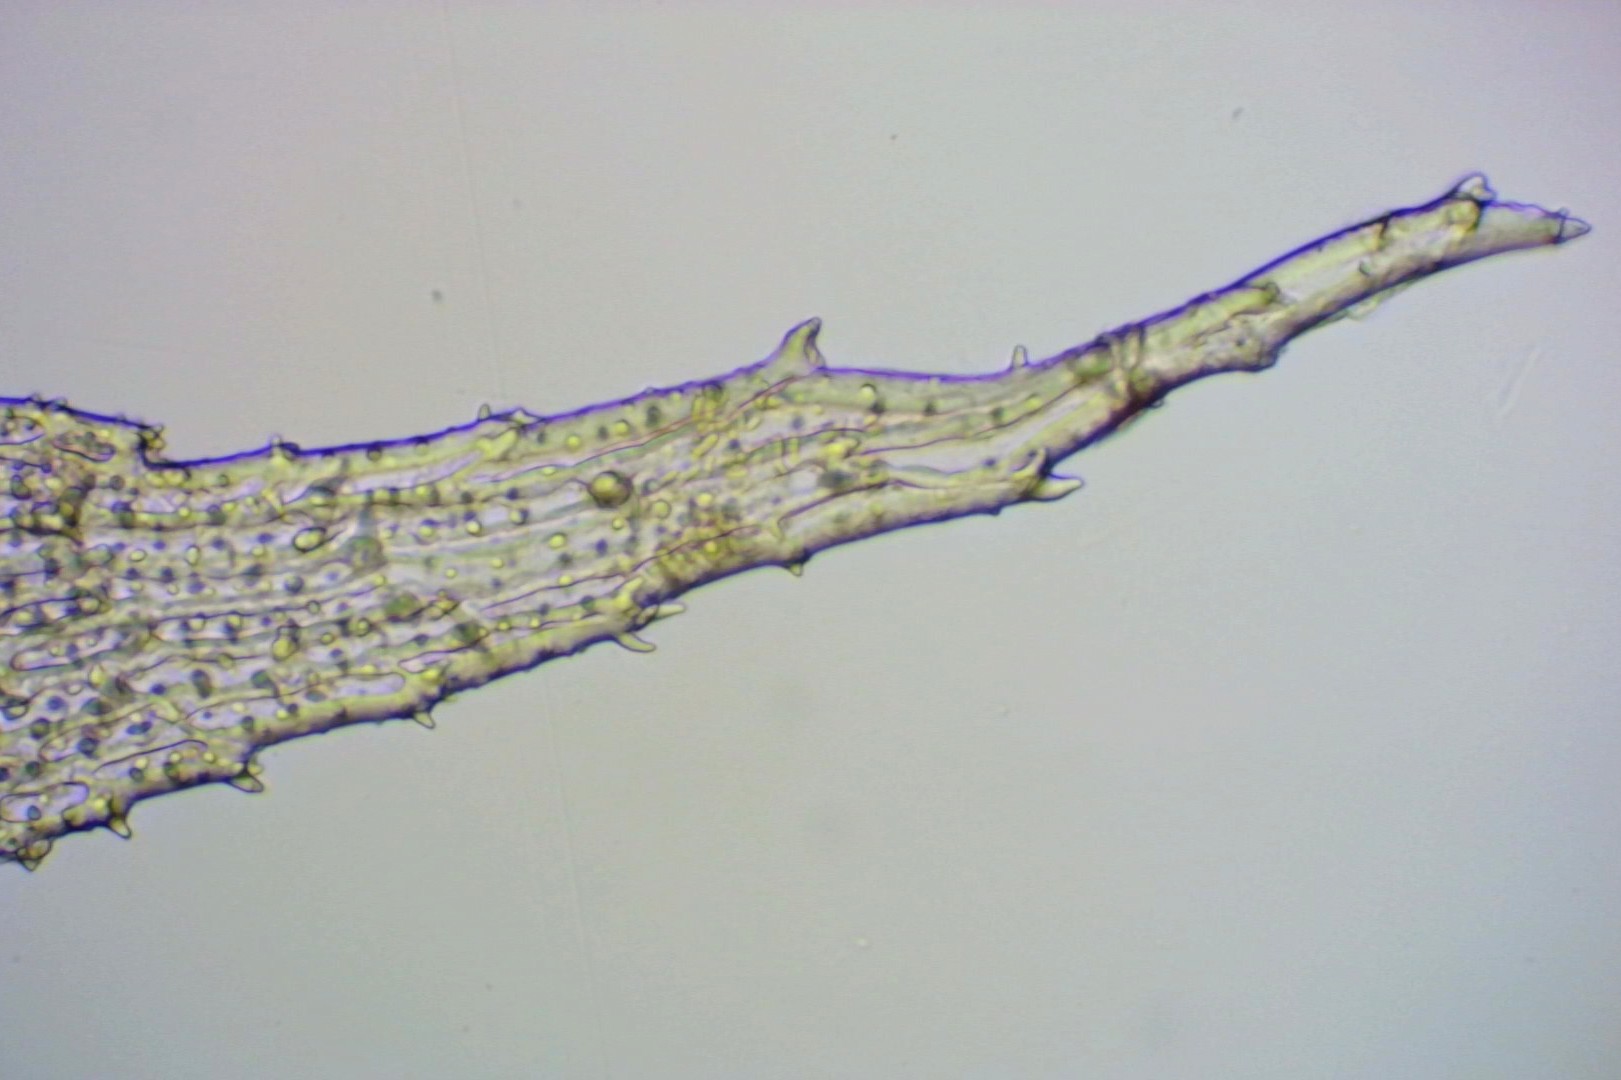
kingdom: Plantae
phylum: Bryophyta
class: Bryopsida
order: Hedwigiales
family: Hedwigiaceae
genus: Hedwigia
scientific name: Hedwigia ciliata
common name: Hvidspidset hedwigia
